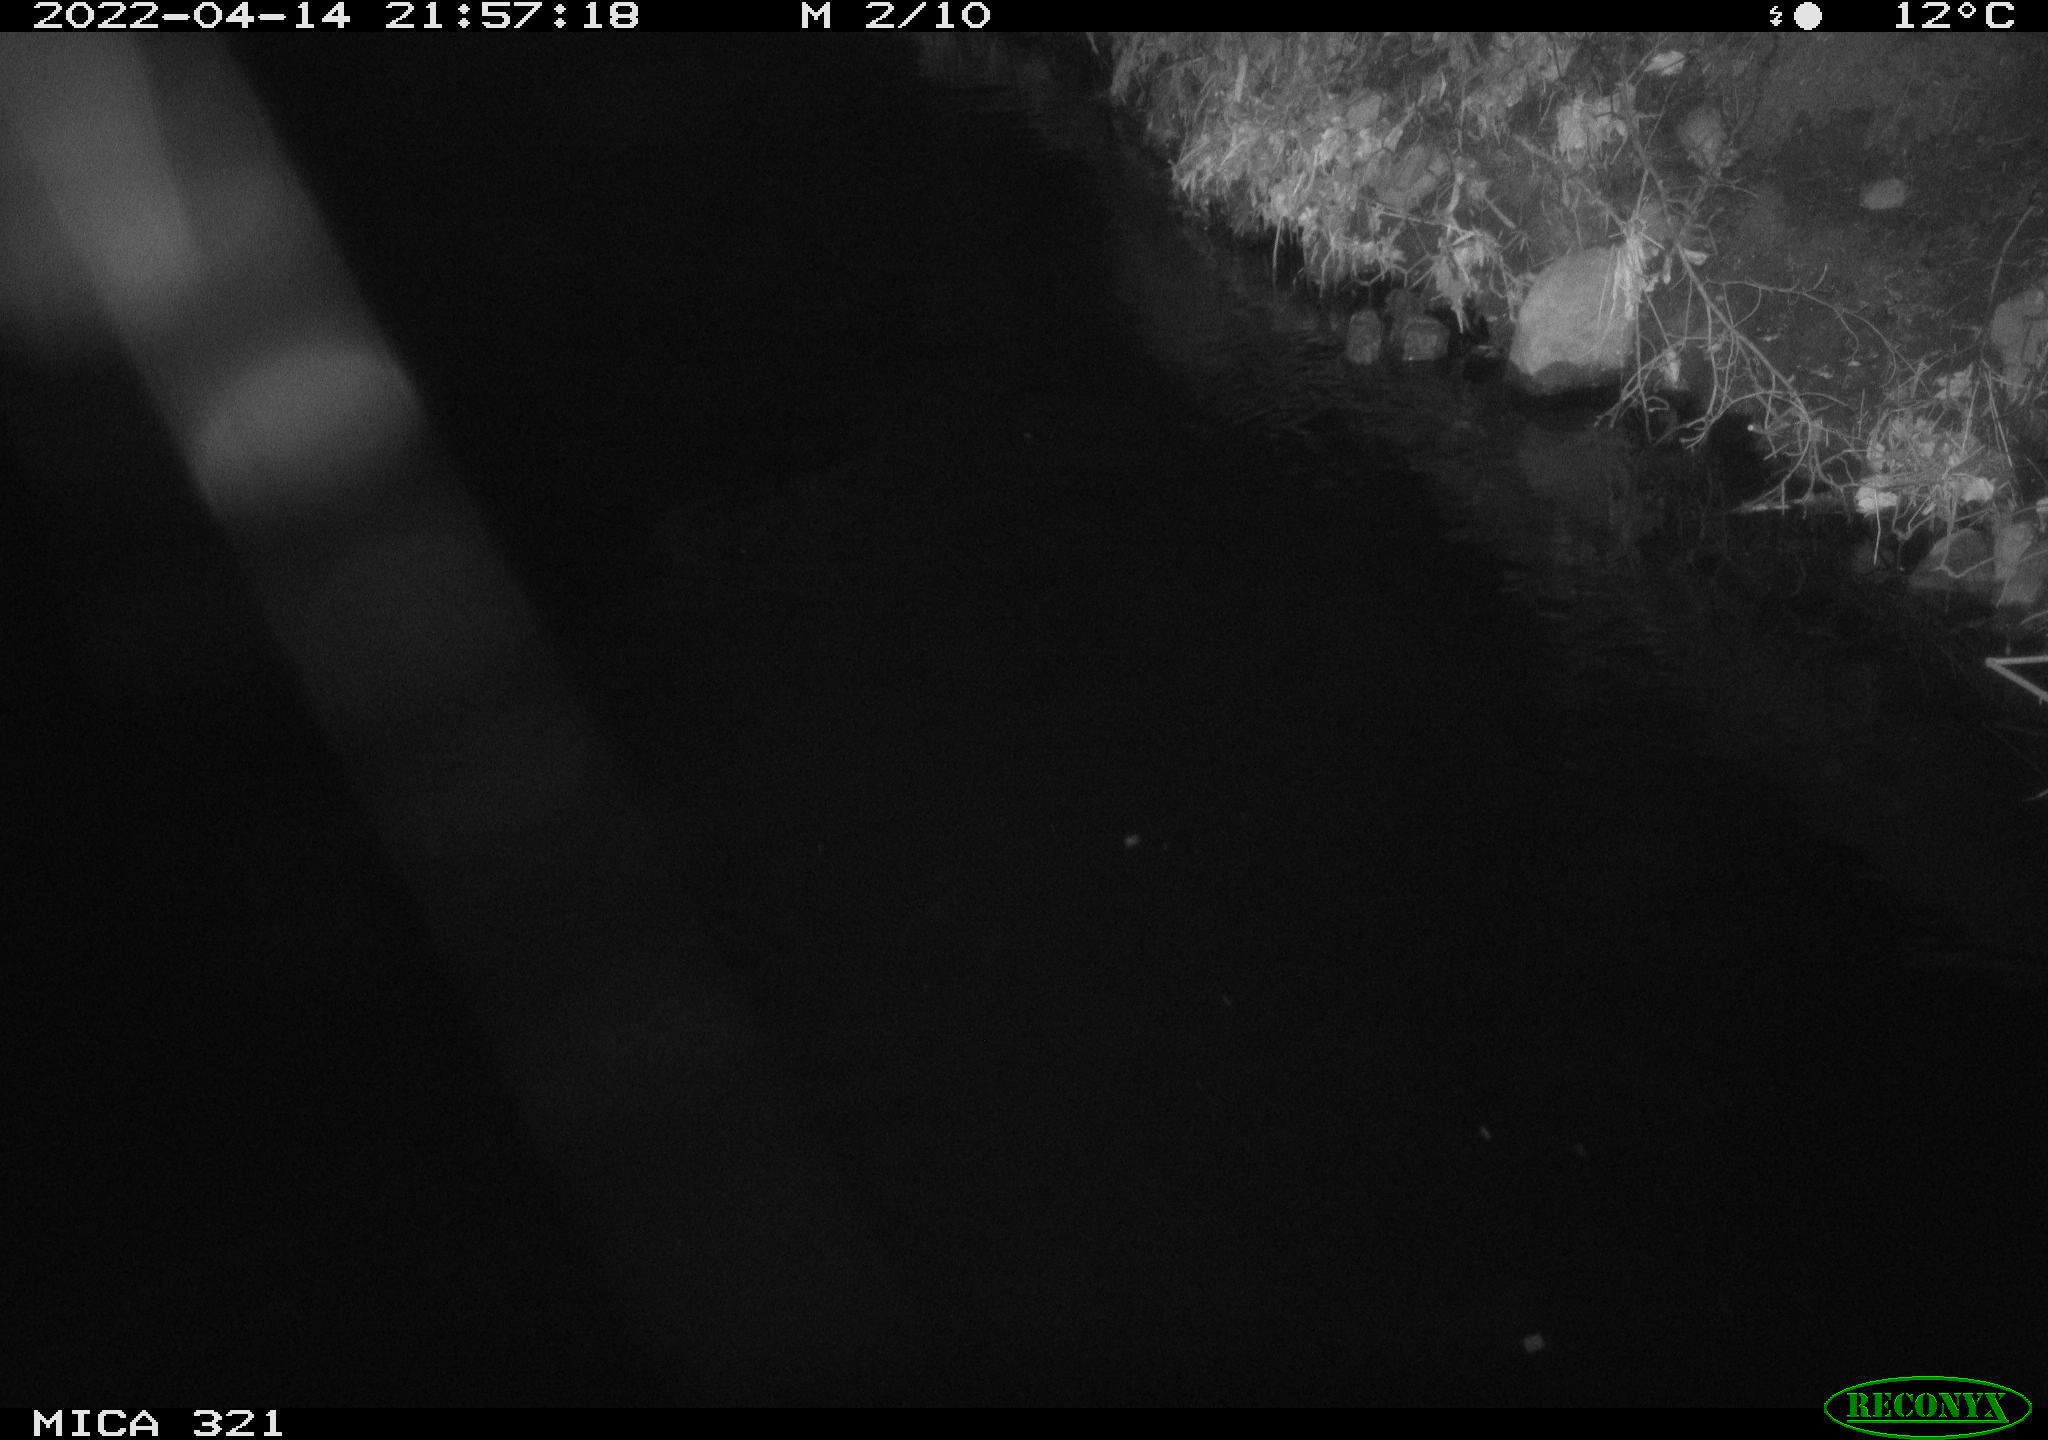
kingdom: Animalia
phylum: Chordata
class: Aves
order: Anseriformes
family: Anatidae
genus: Anas
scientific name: Anas platyrhynchos
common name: Mallard
